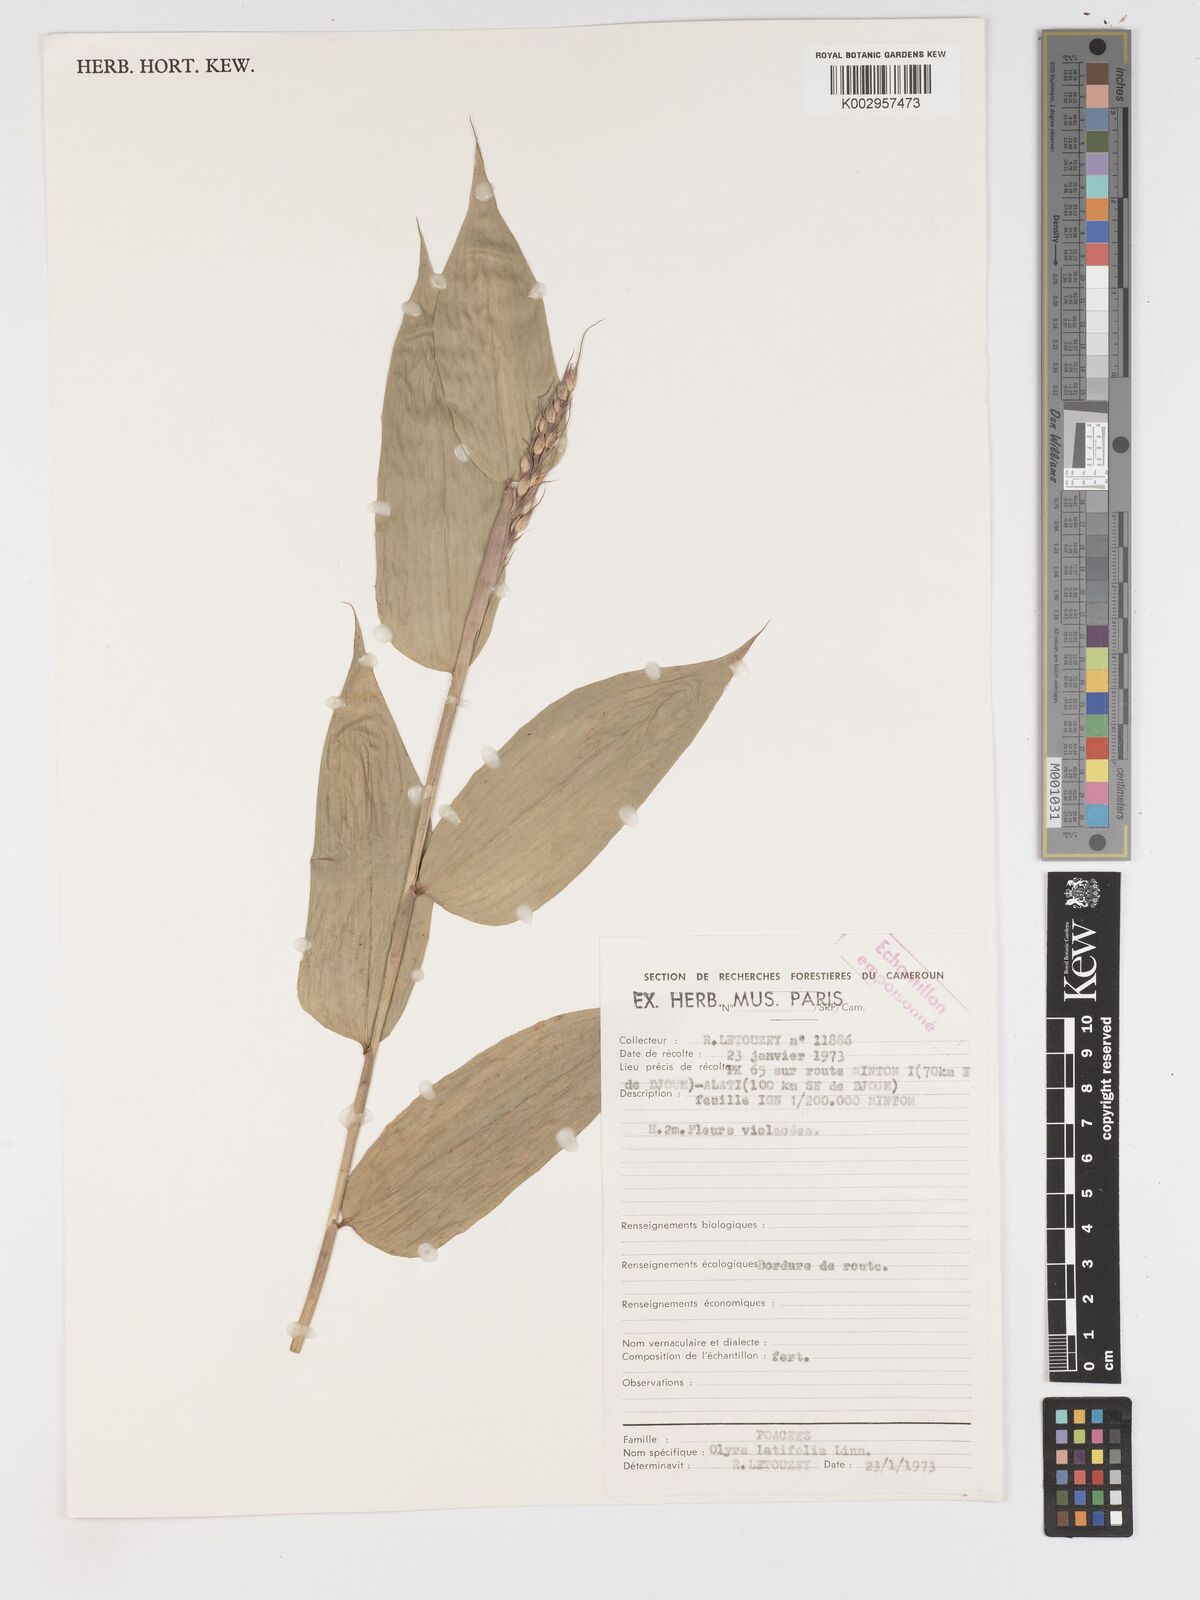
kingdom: Plantae
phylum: Tracheophyta
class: Liliopsida
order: Poales
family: Poaceae
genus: Olyra
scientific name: Olyra latifolia
